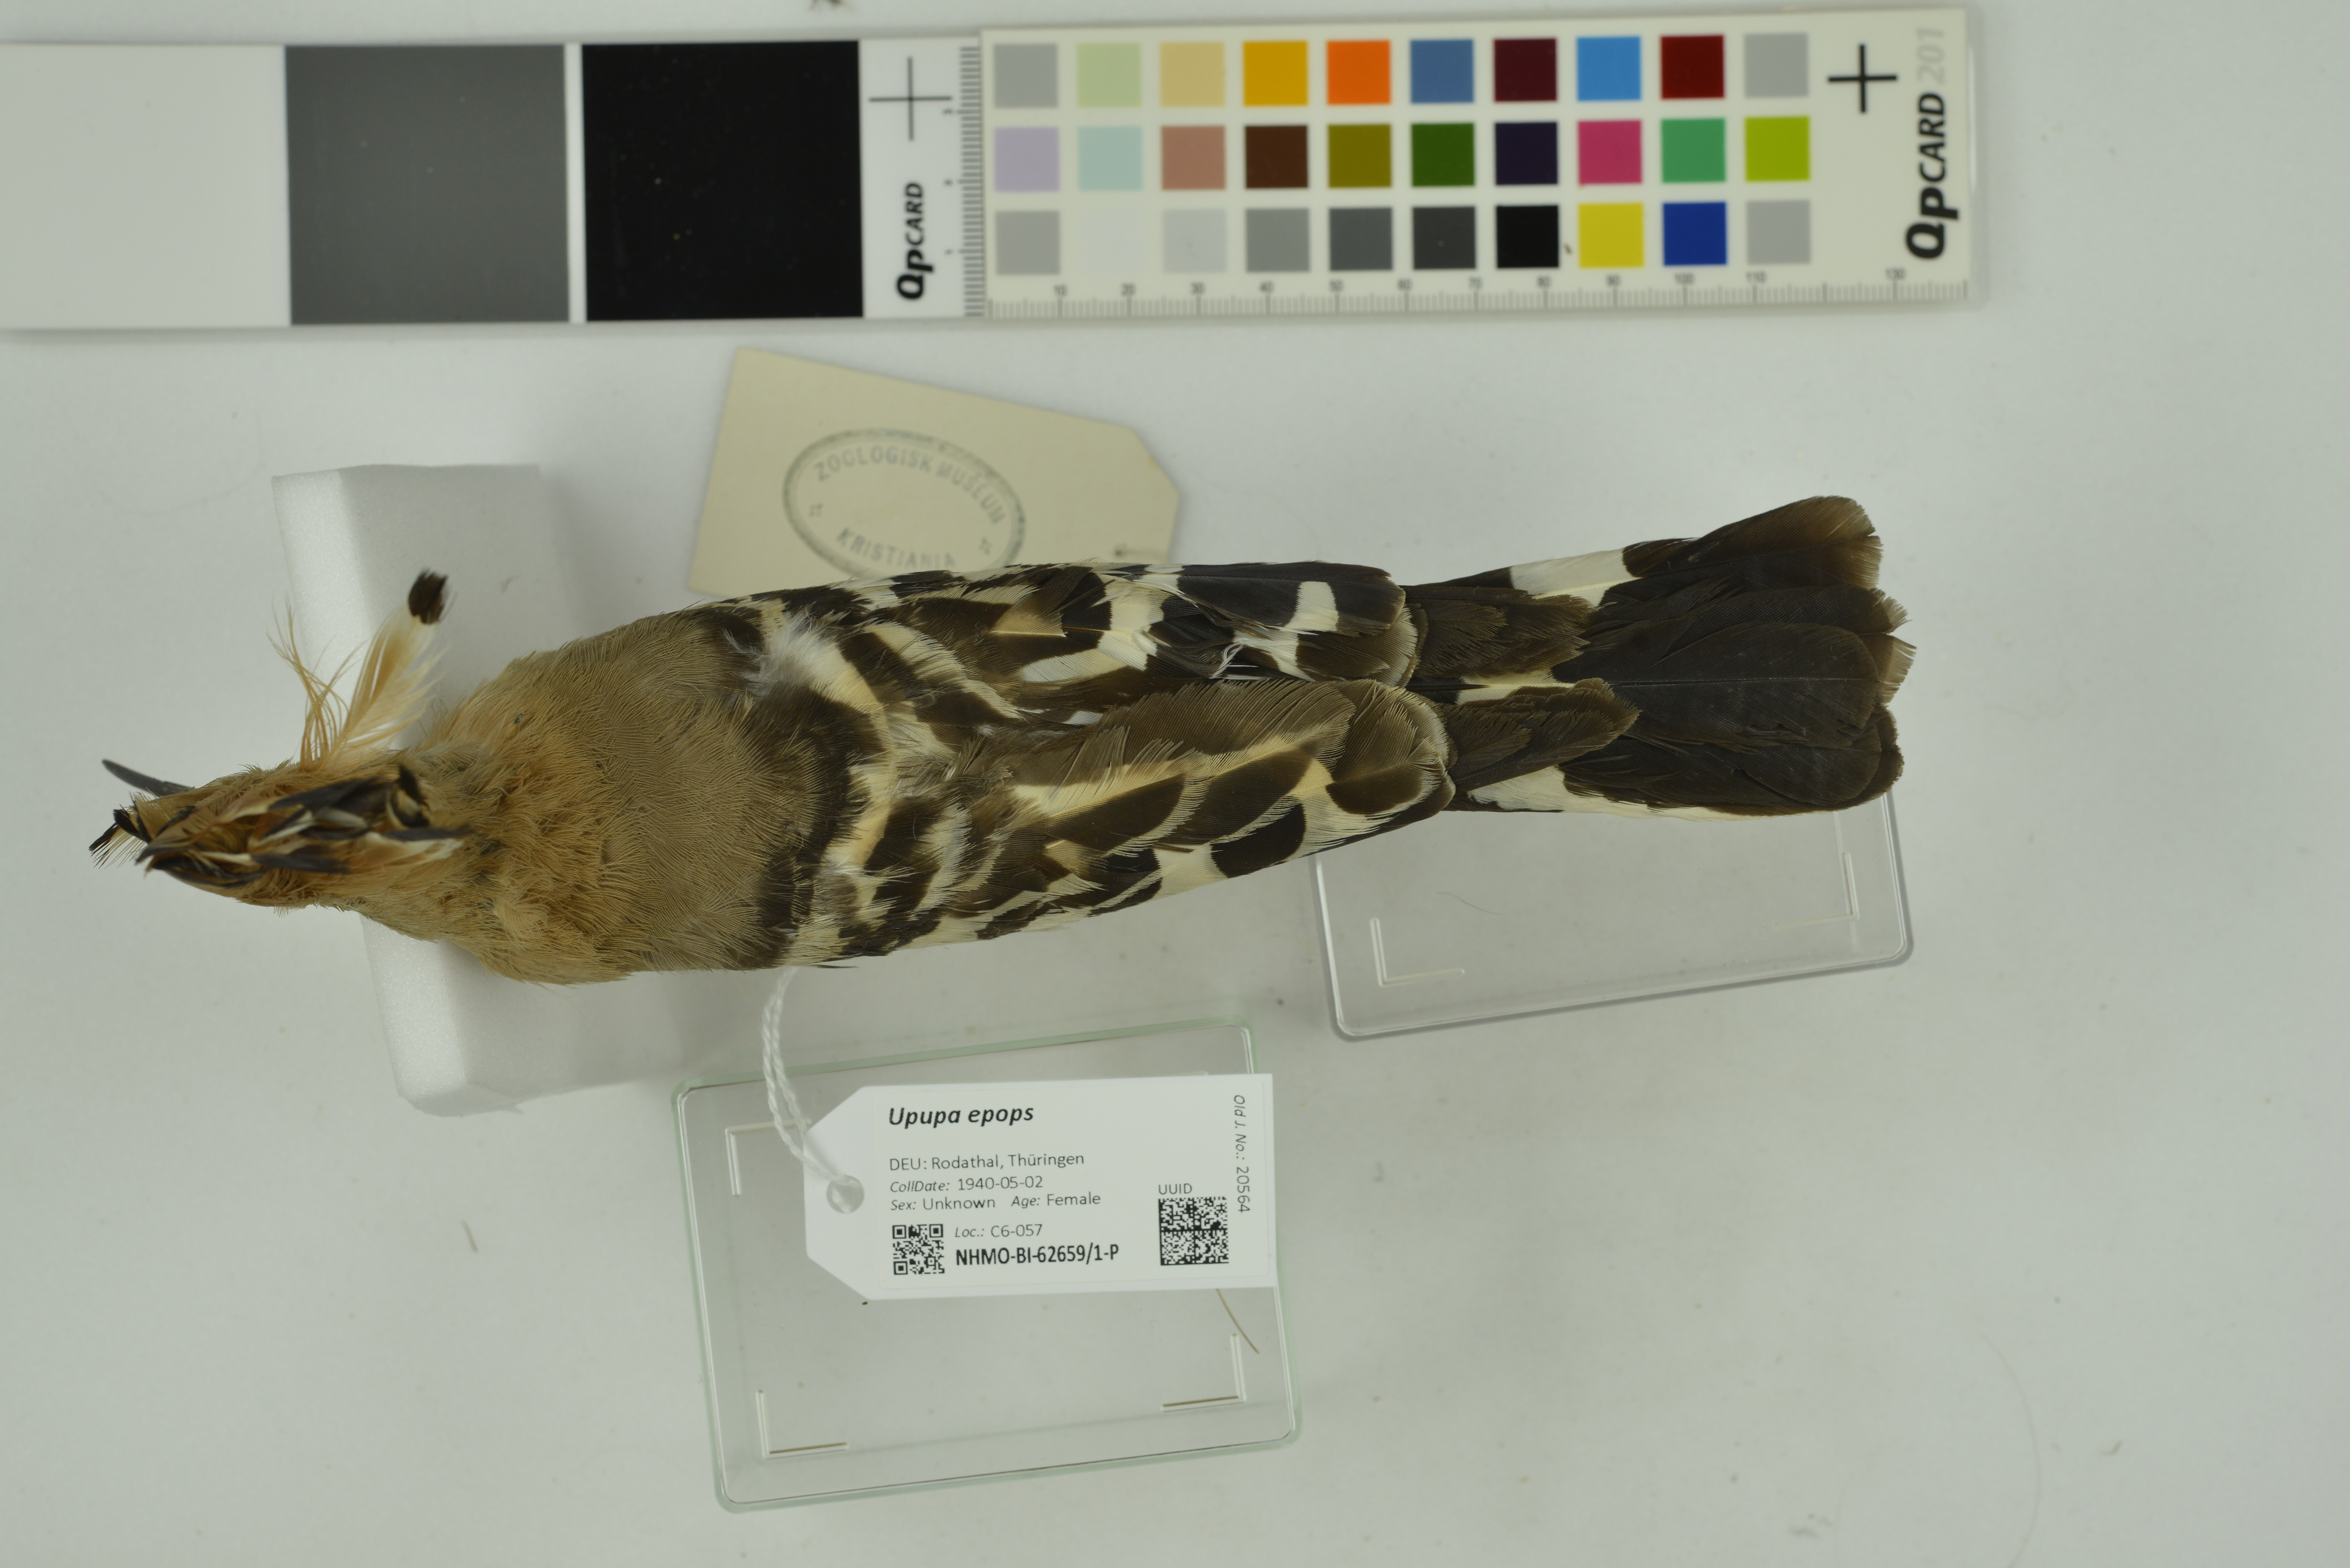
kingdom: Animalia
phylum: Chordata
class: Aves
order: Bucerotiformes
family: Upupidae
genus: Upupa
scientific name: Upupa epops
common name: Eurasian hoopoe
